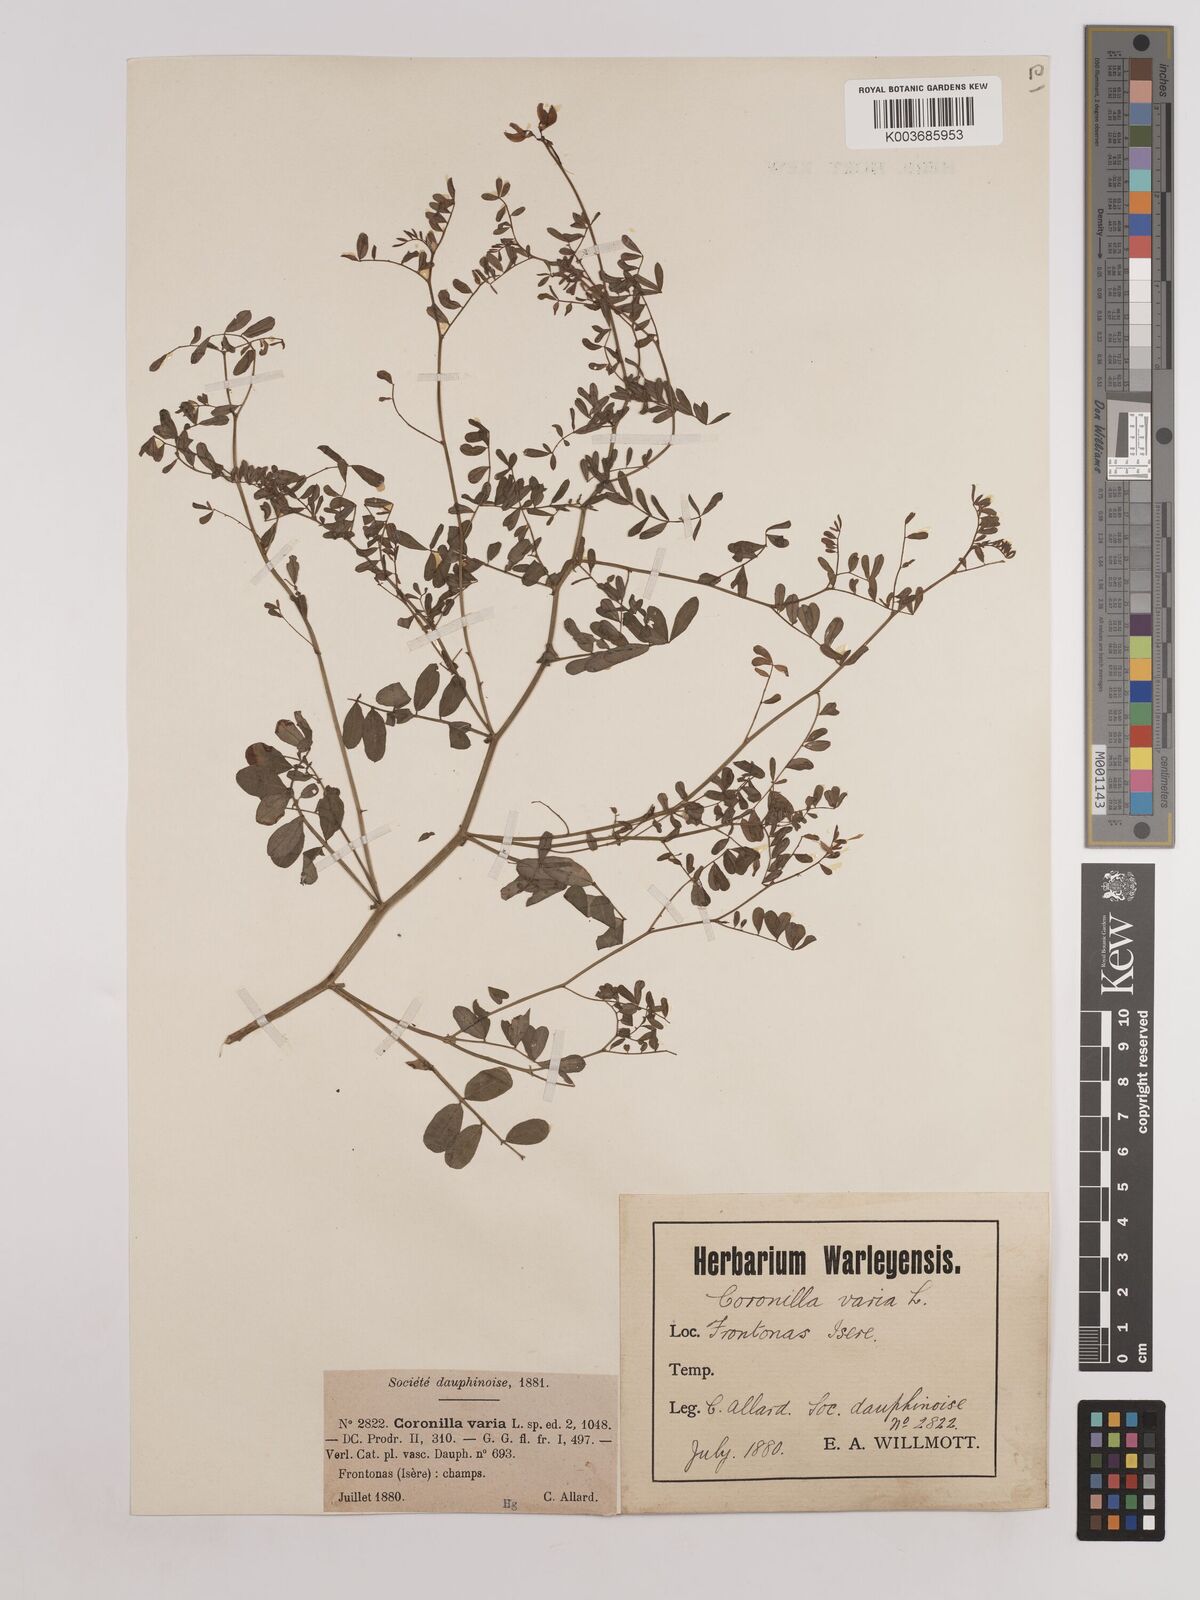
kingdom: Plantae
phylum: Tracheophyta
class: Magnoliopsida
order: Fabales
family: Fabaceae
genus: Coronilla
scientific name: Coronilla varia
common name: Crownvetch
